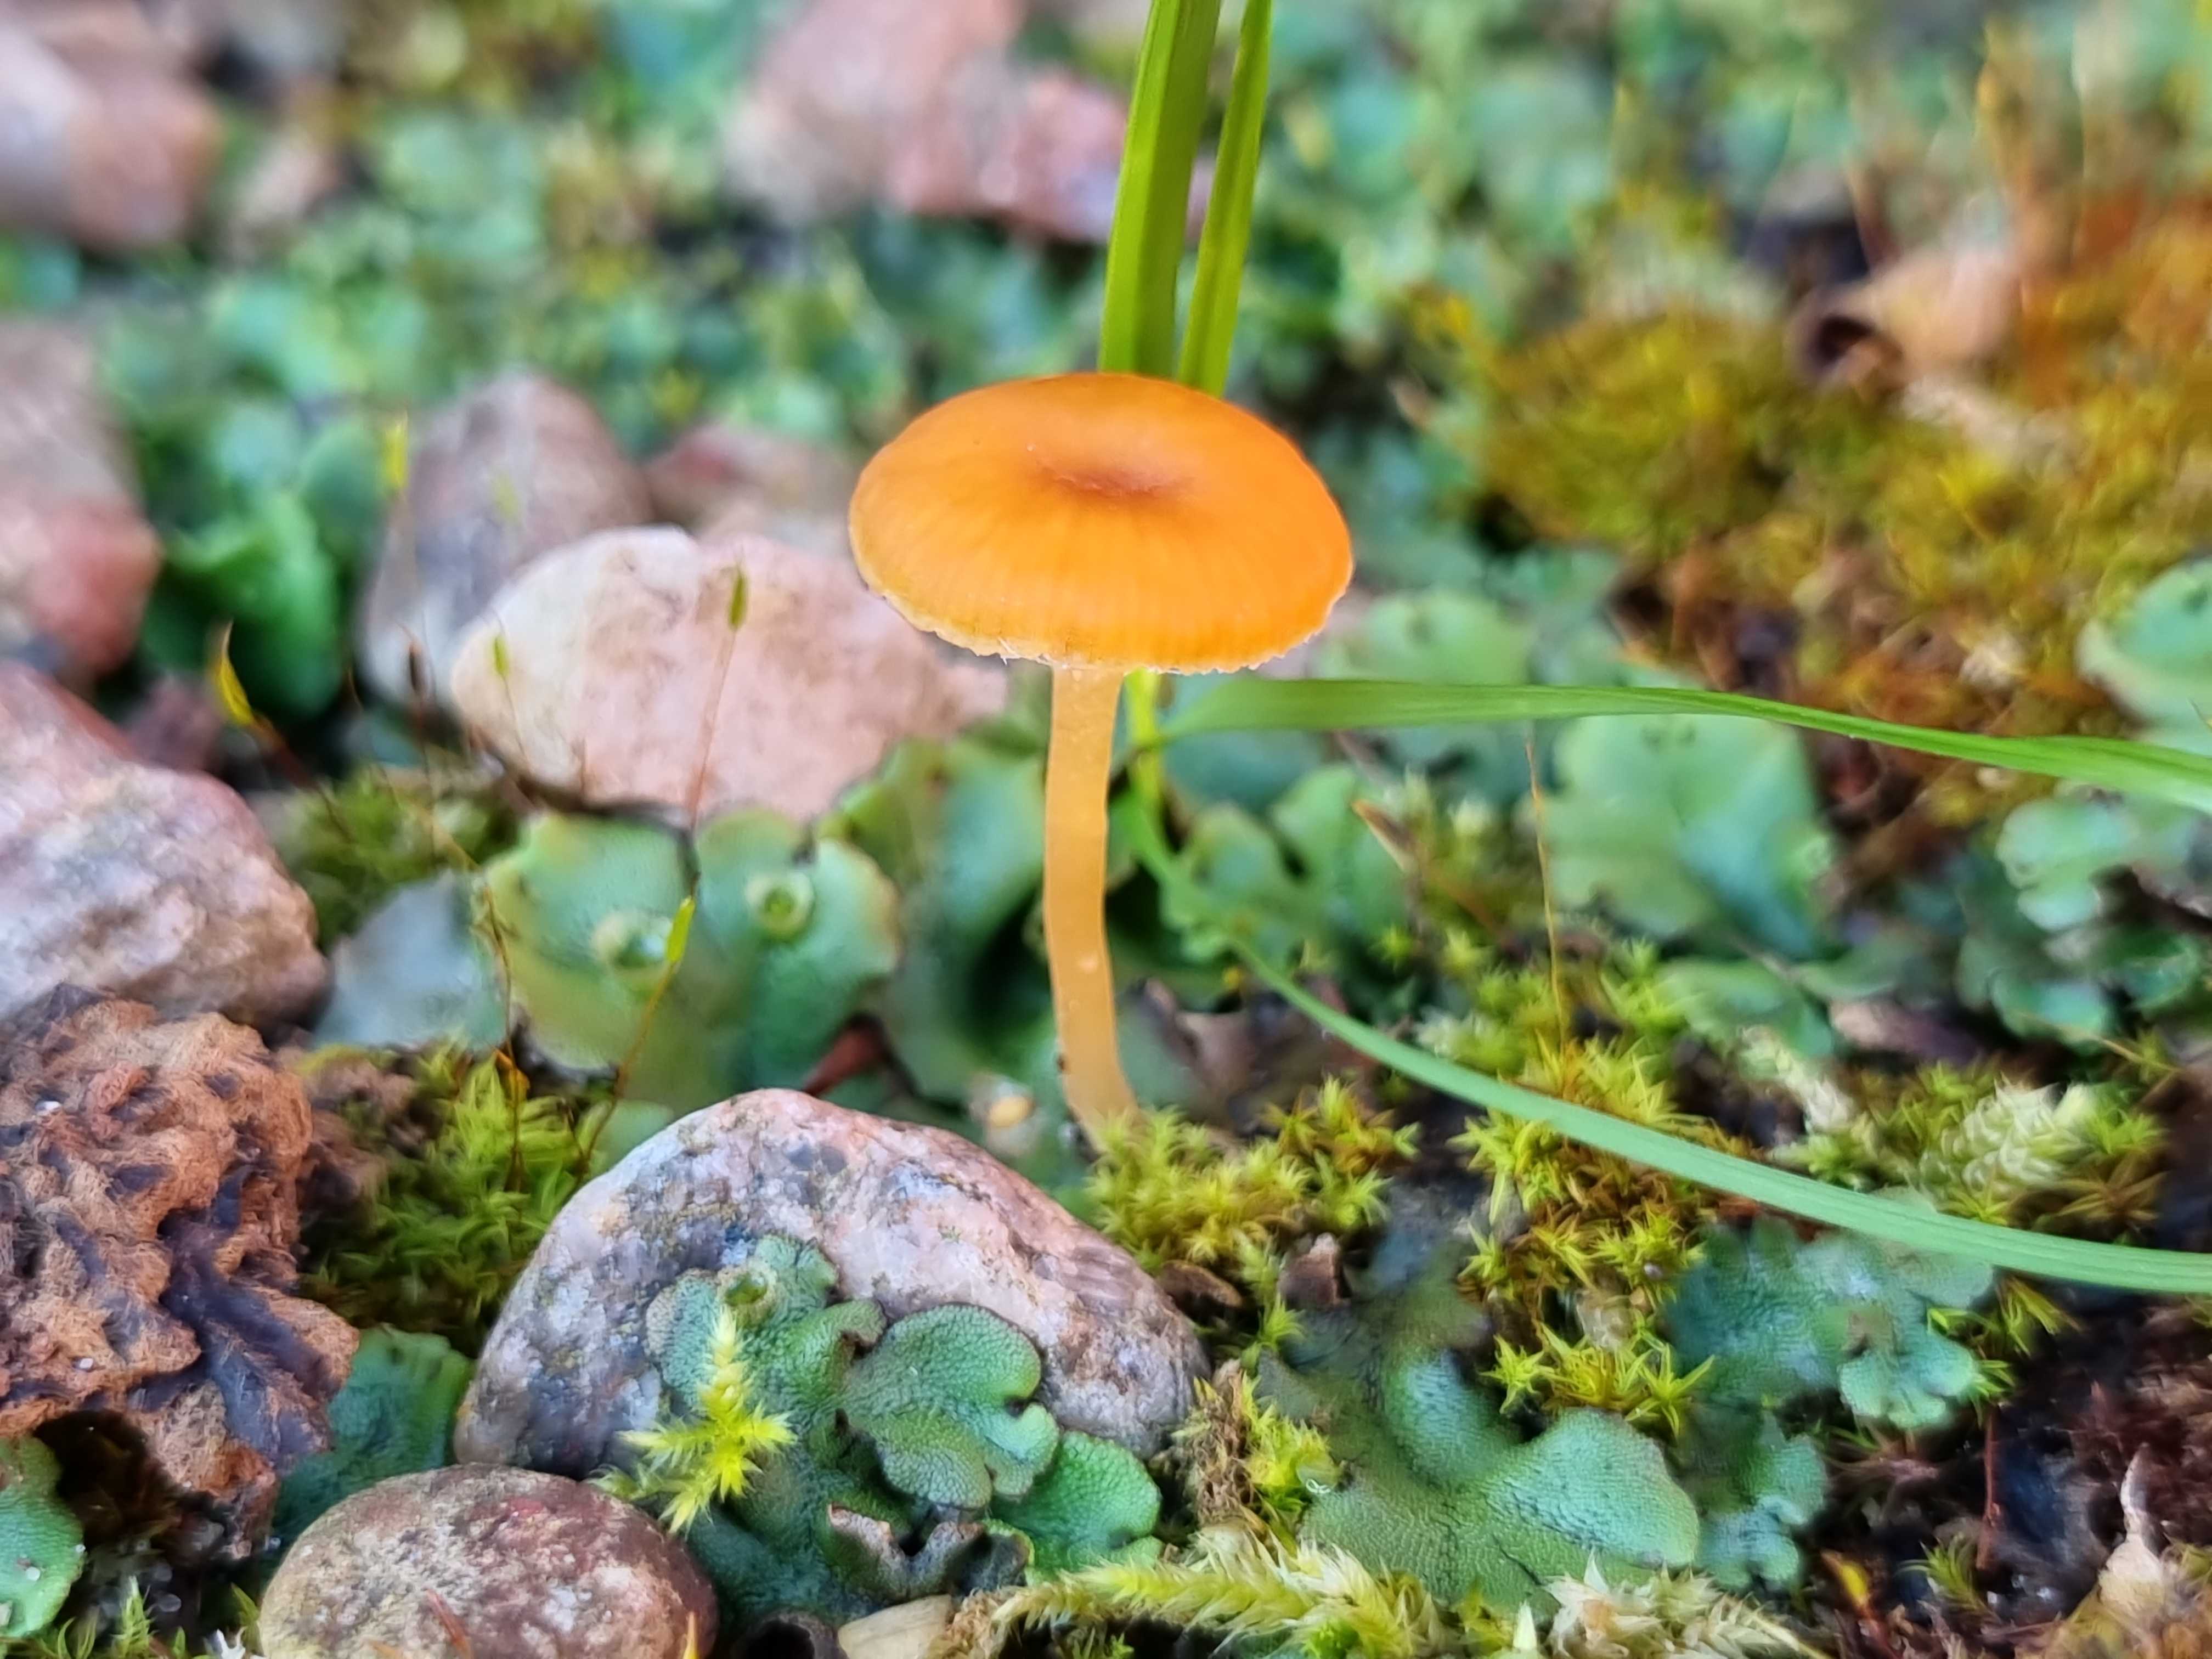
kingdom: Fungi
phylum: Basidiomycota
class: Agaricomycetes
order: Hymenochaetales
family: Rickenellaceae
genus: Loreleia
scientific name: Loreleia
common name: mosnavlehat
